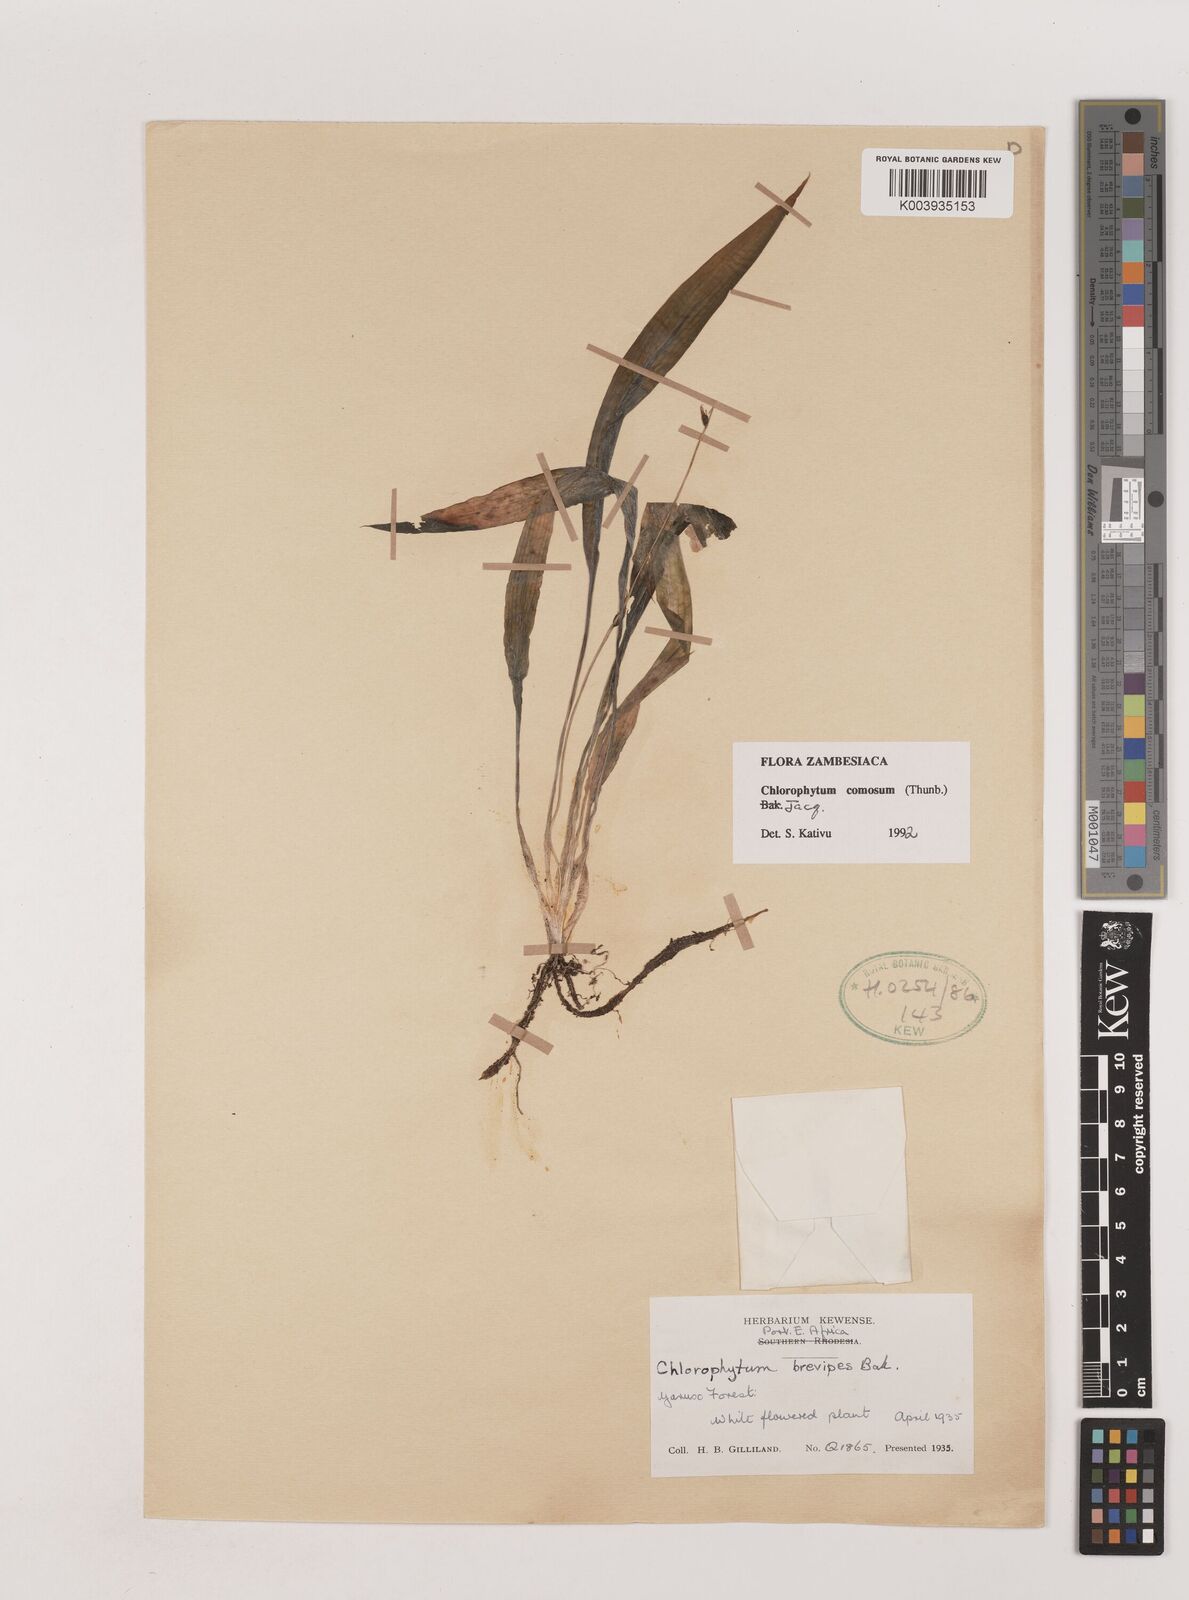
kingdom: Plantae
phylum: Tracheophyta
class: Liliopsida
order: Asparagales
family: Asparagaceae
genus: Chlorophytum
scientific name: Chlorophytum comosum
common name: Spider plant
